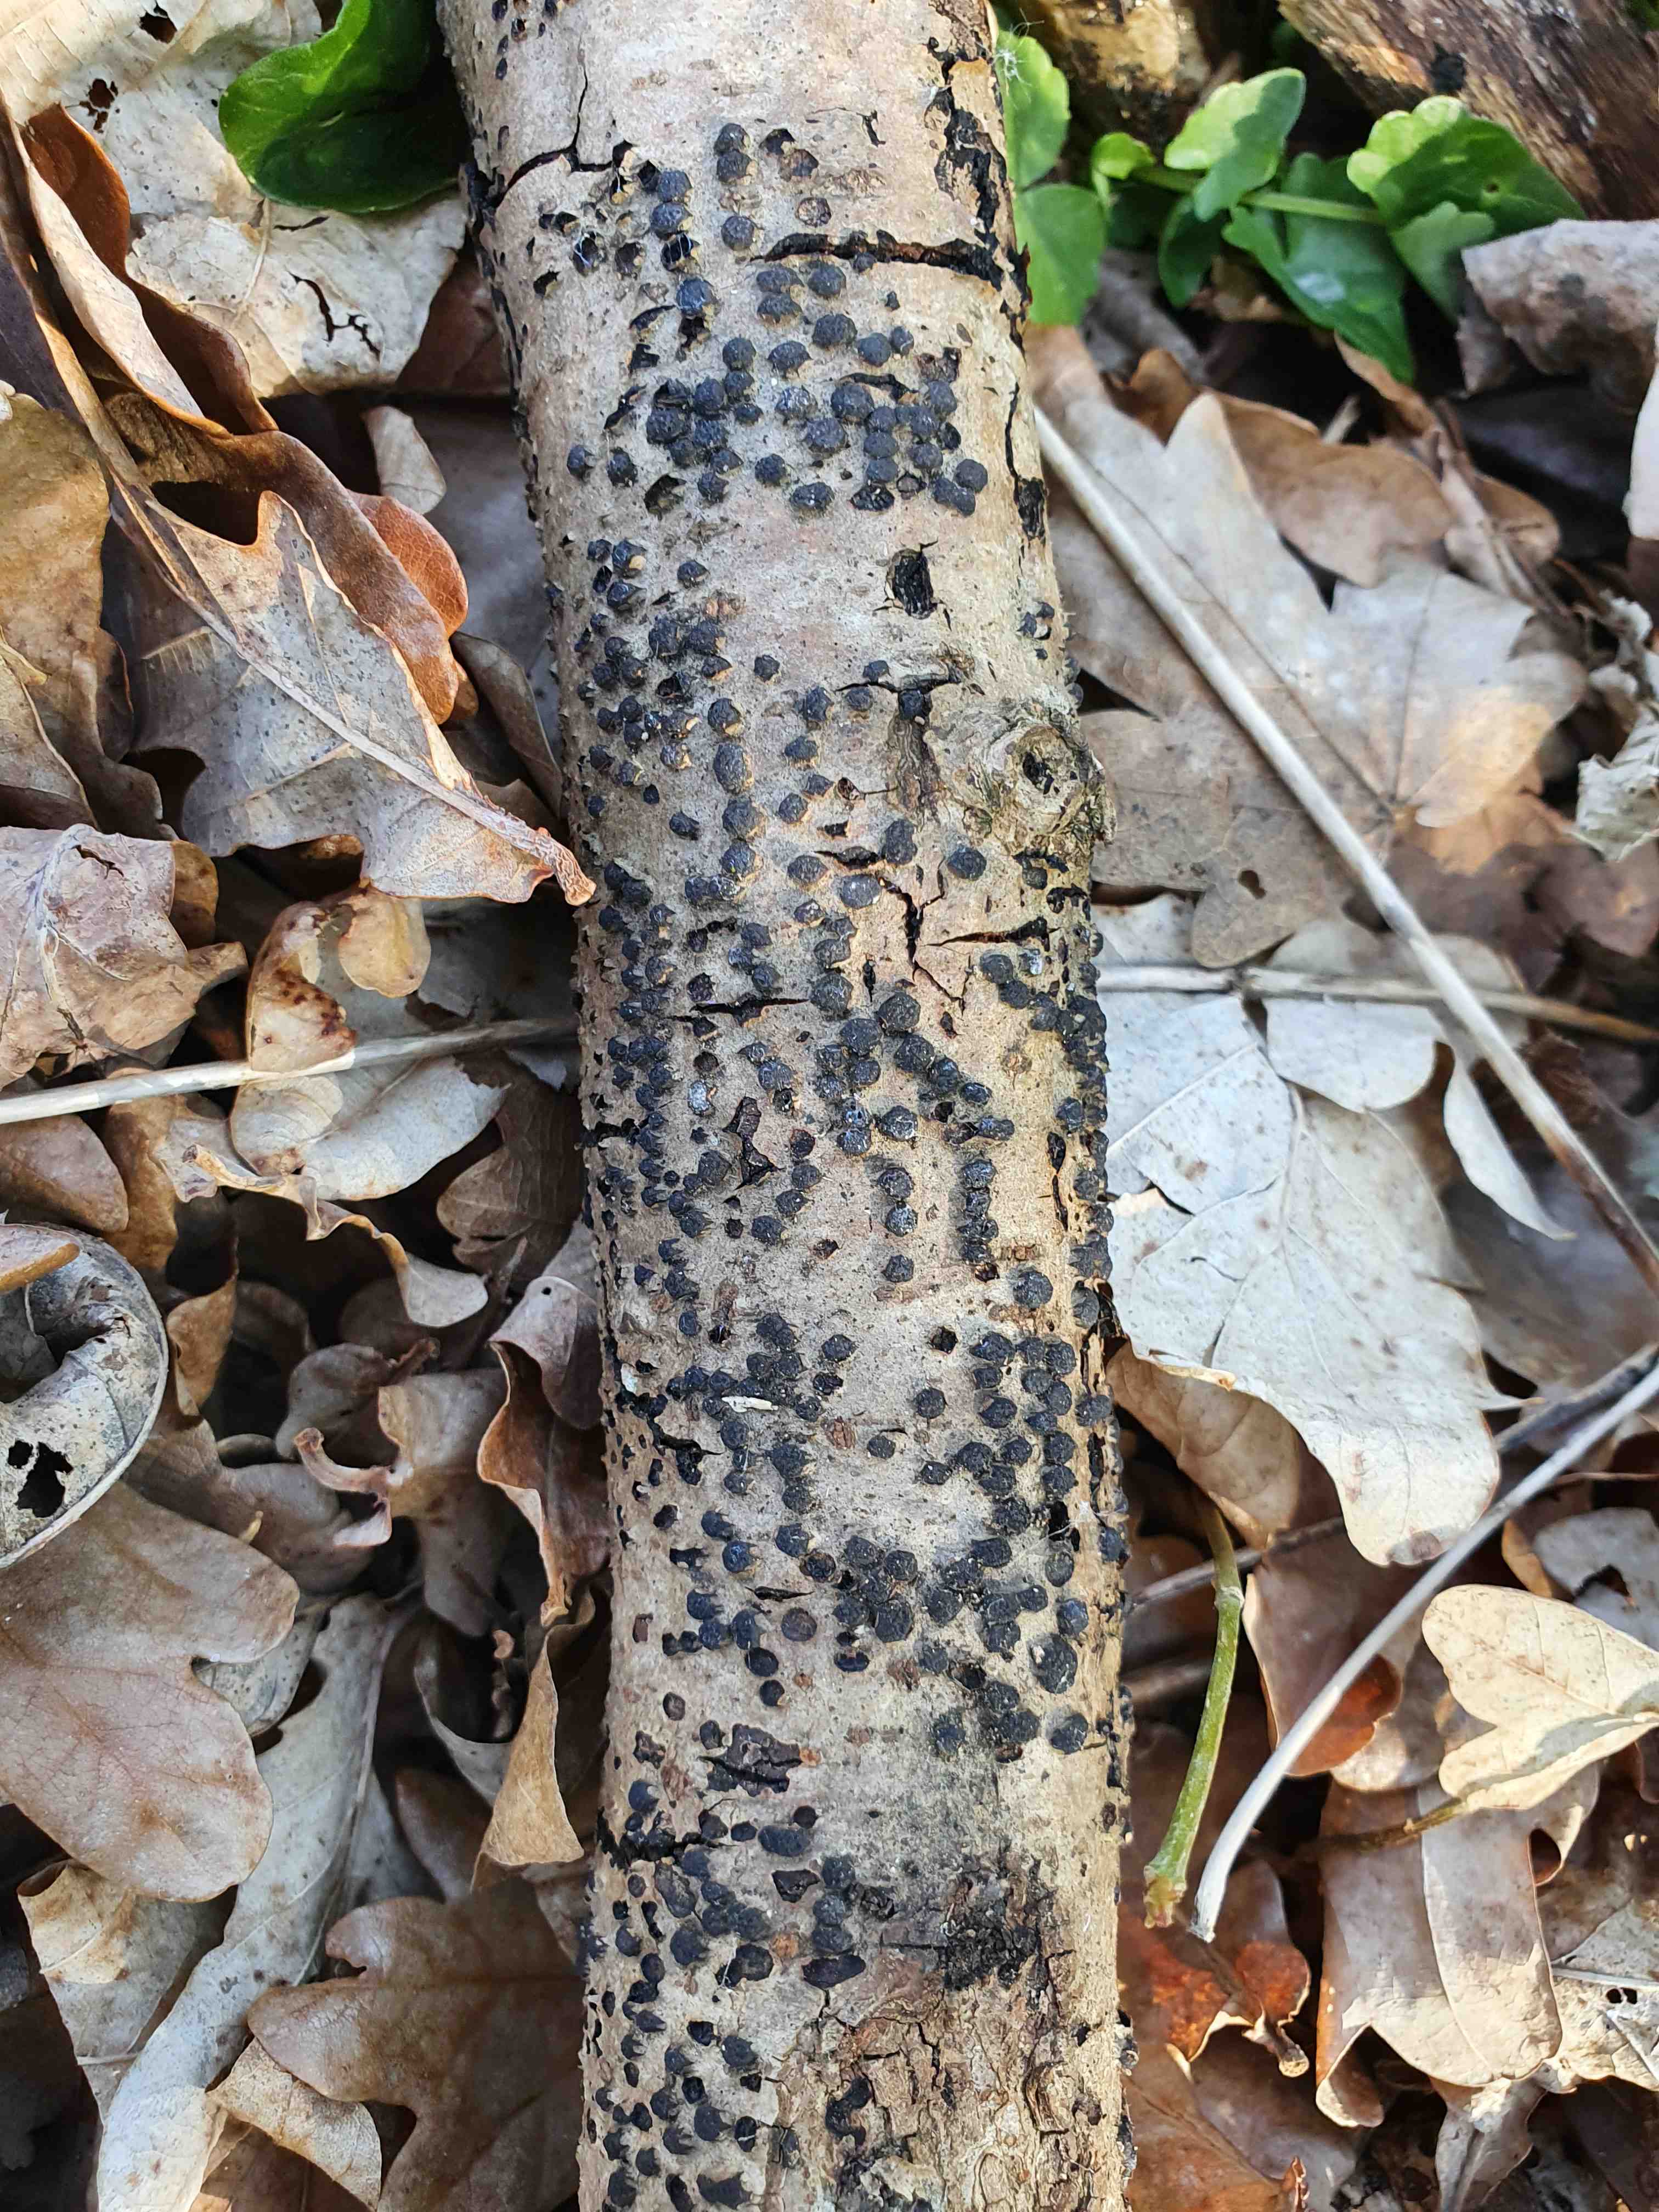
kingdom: Fungi
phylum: Ascomycota
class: Sordariomycetes
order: Xylariales
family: Diatrypaceae
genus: Diatrypella
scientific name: Diatrypella quercina
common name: ege-kulskorpe
